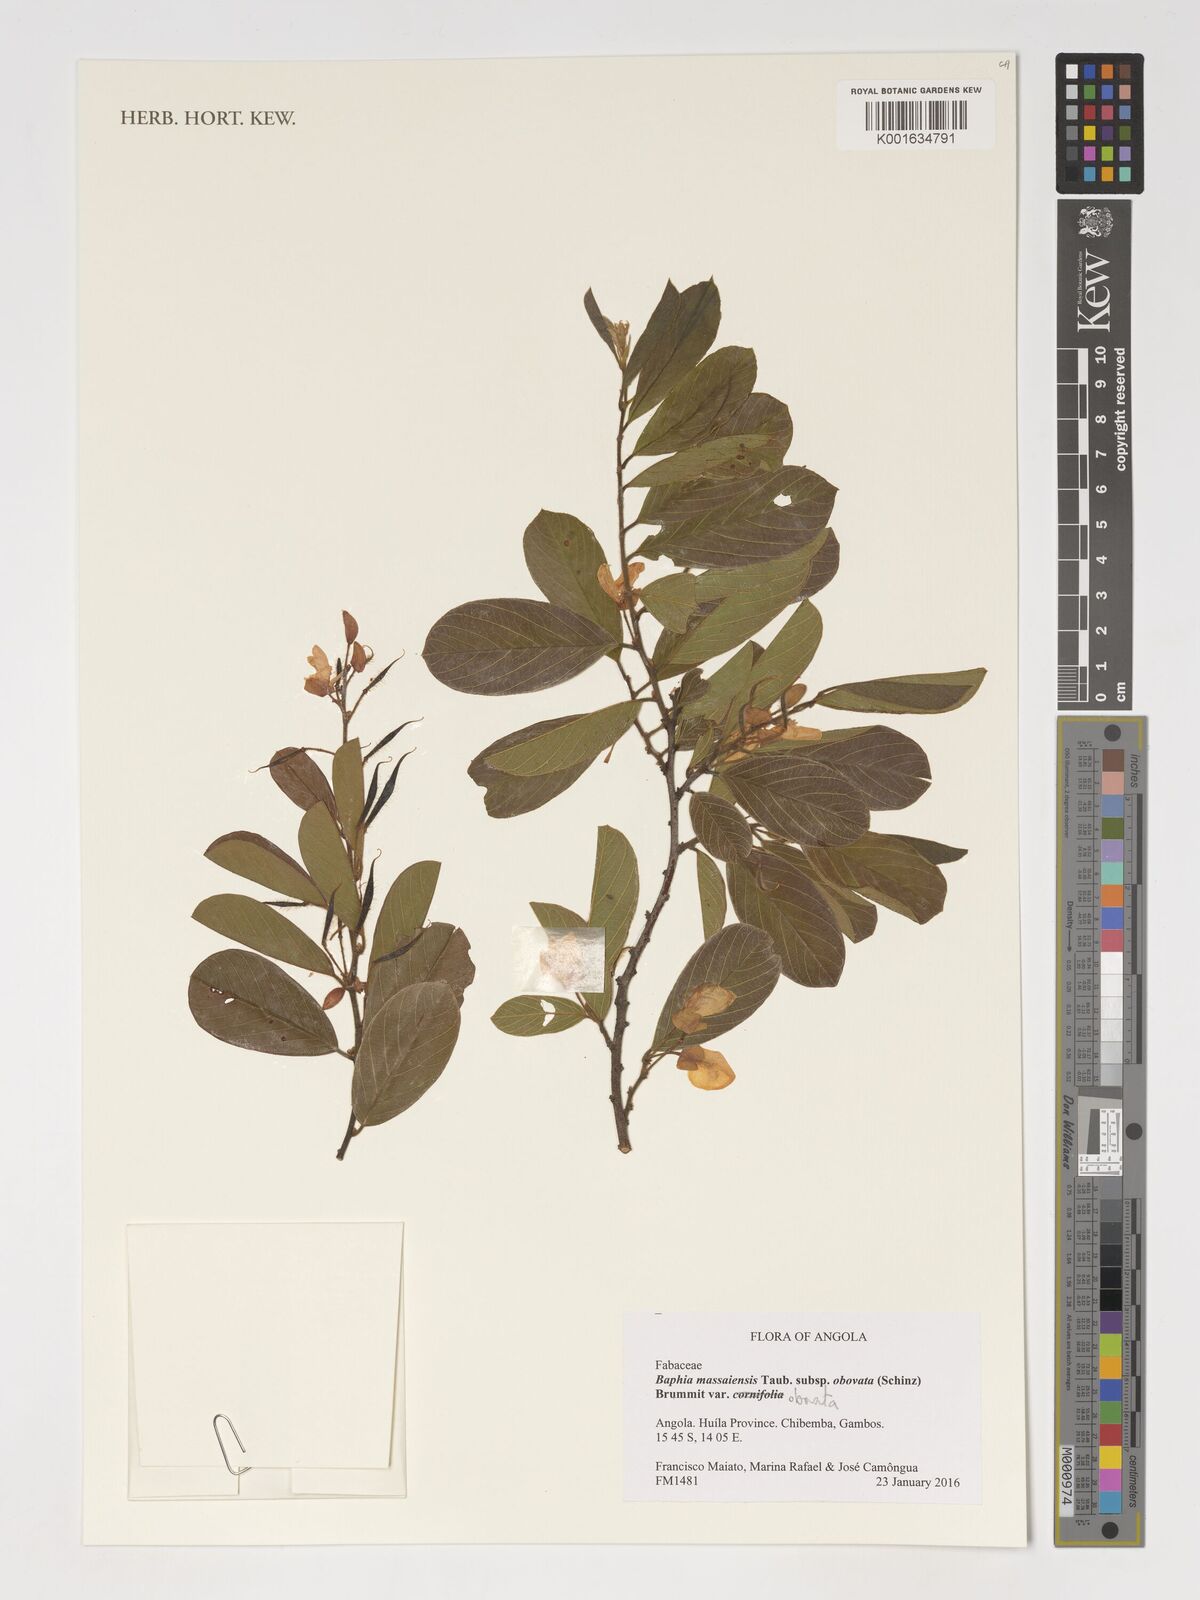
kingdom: Plantae
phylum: Tracheophyta
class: Magnoliopsida
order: Fabales
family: Fabaceae
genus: Baphia
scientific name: Baphia massaiensis
